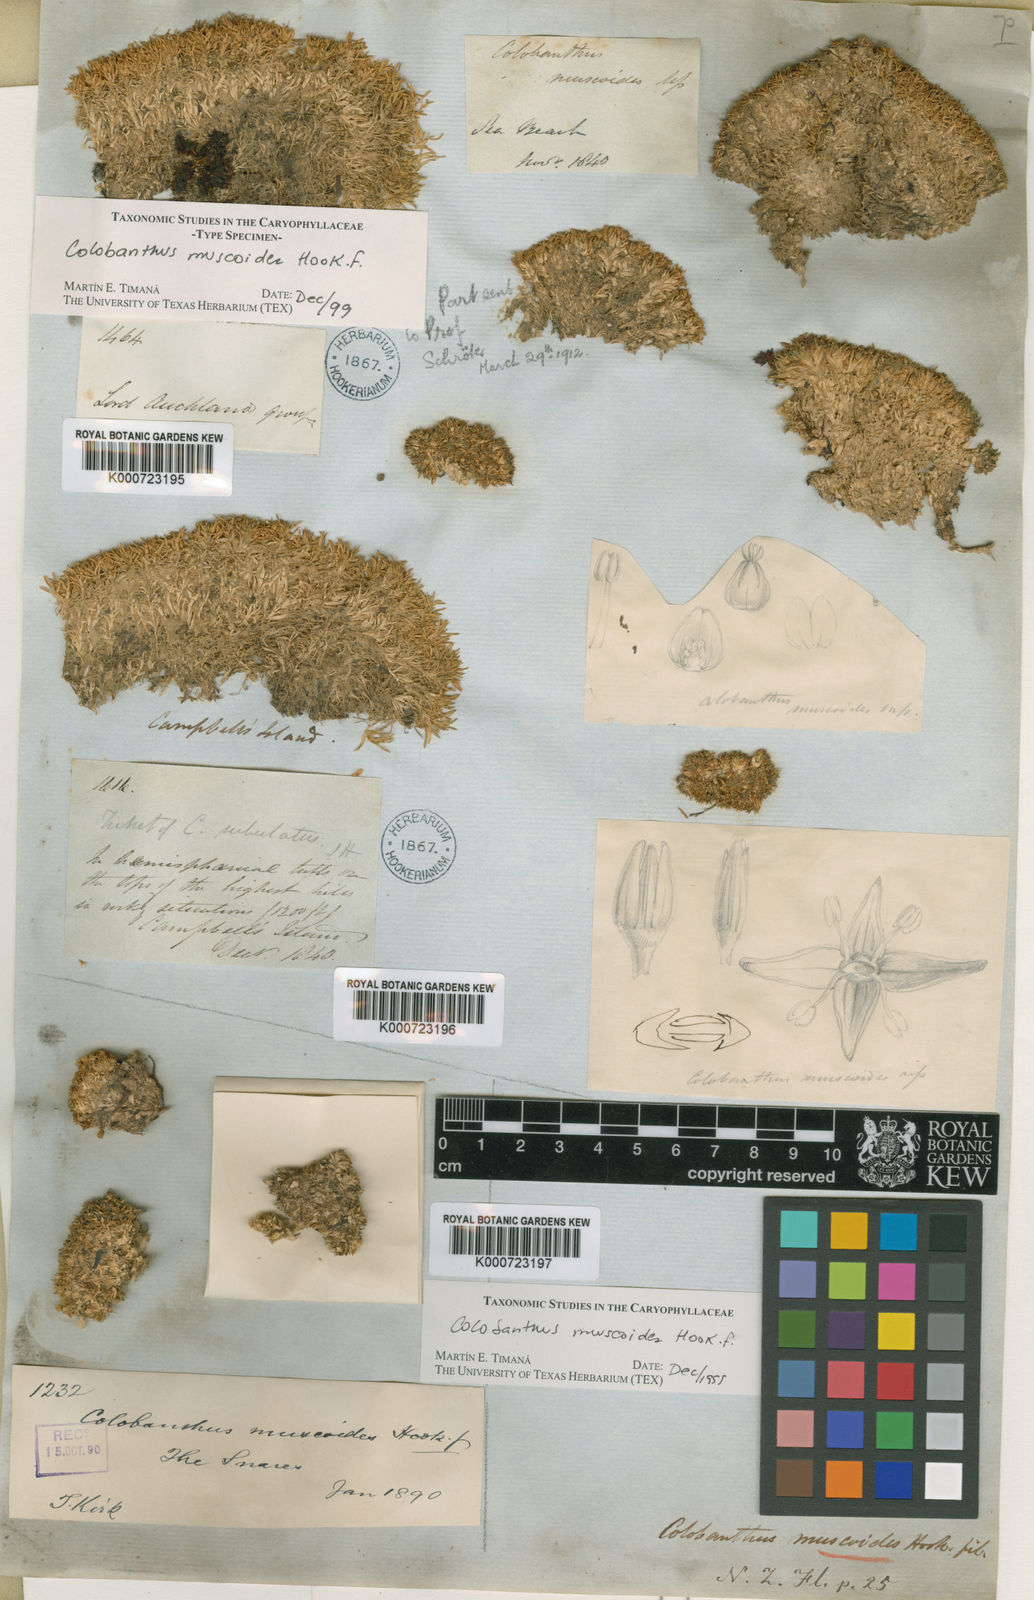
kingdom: Plantae
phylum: Tracheophyta
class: Magnoliopsida
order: Caryophyllales
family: Caryophyllaceae
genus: Colobanthus
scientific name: Colobanthus muscoides
